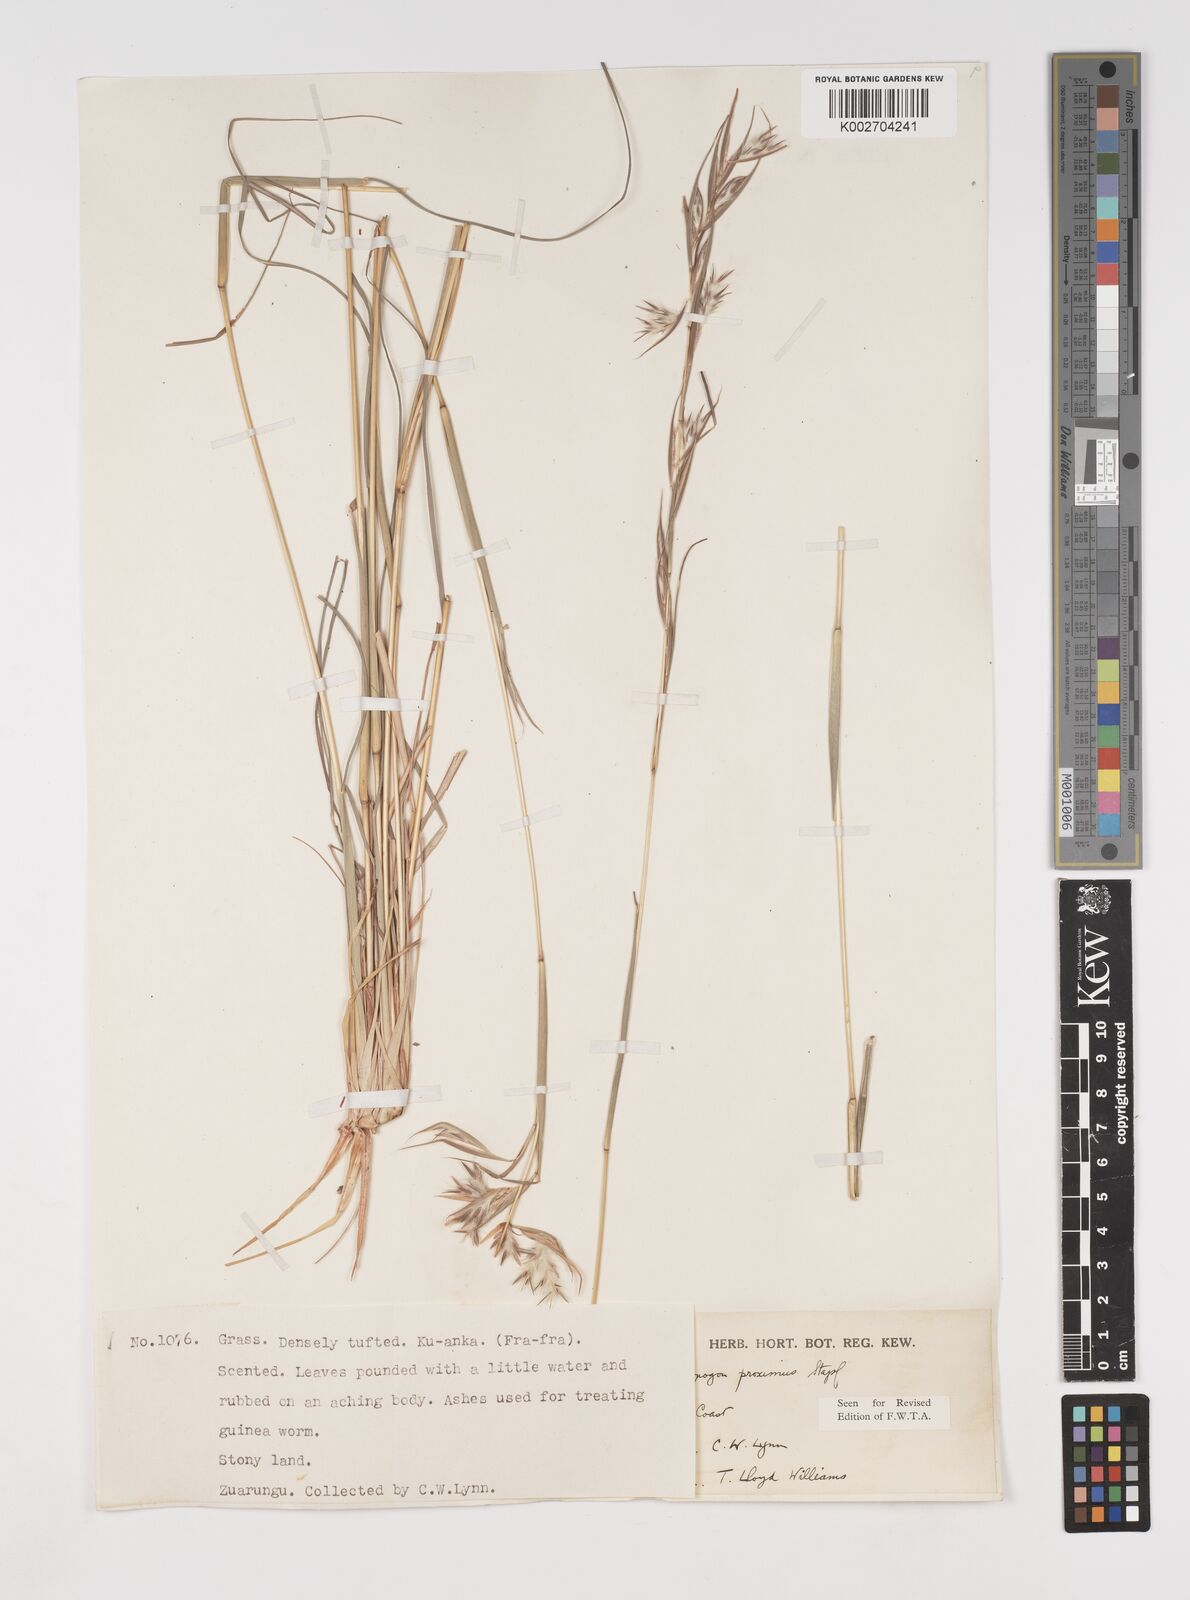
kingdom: Plantae
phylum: Tracheophyta
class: Liliopsida
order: Poales
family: Poaceae
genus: Cymbopogon
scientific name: Cymbopogon schoenanthus
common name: Geranium grass
